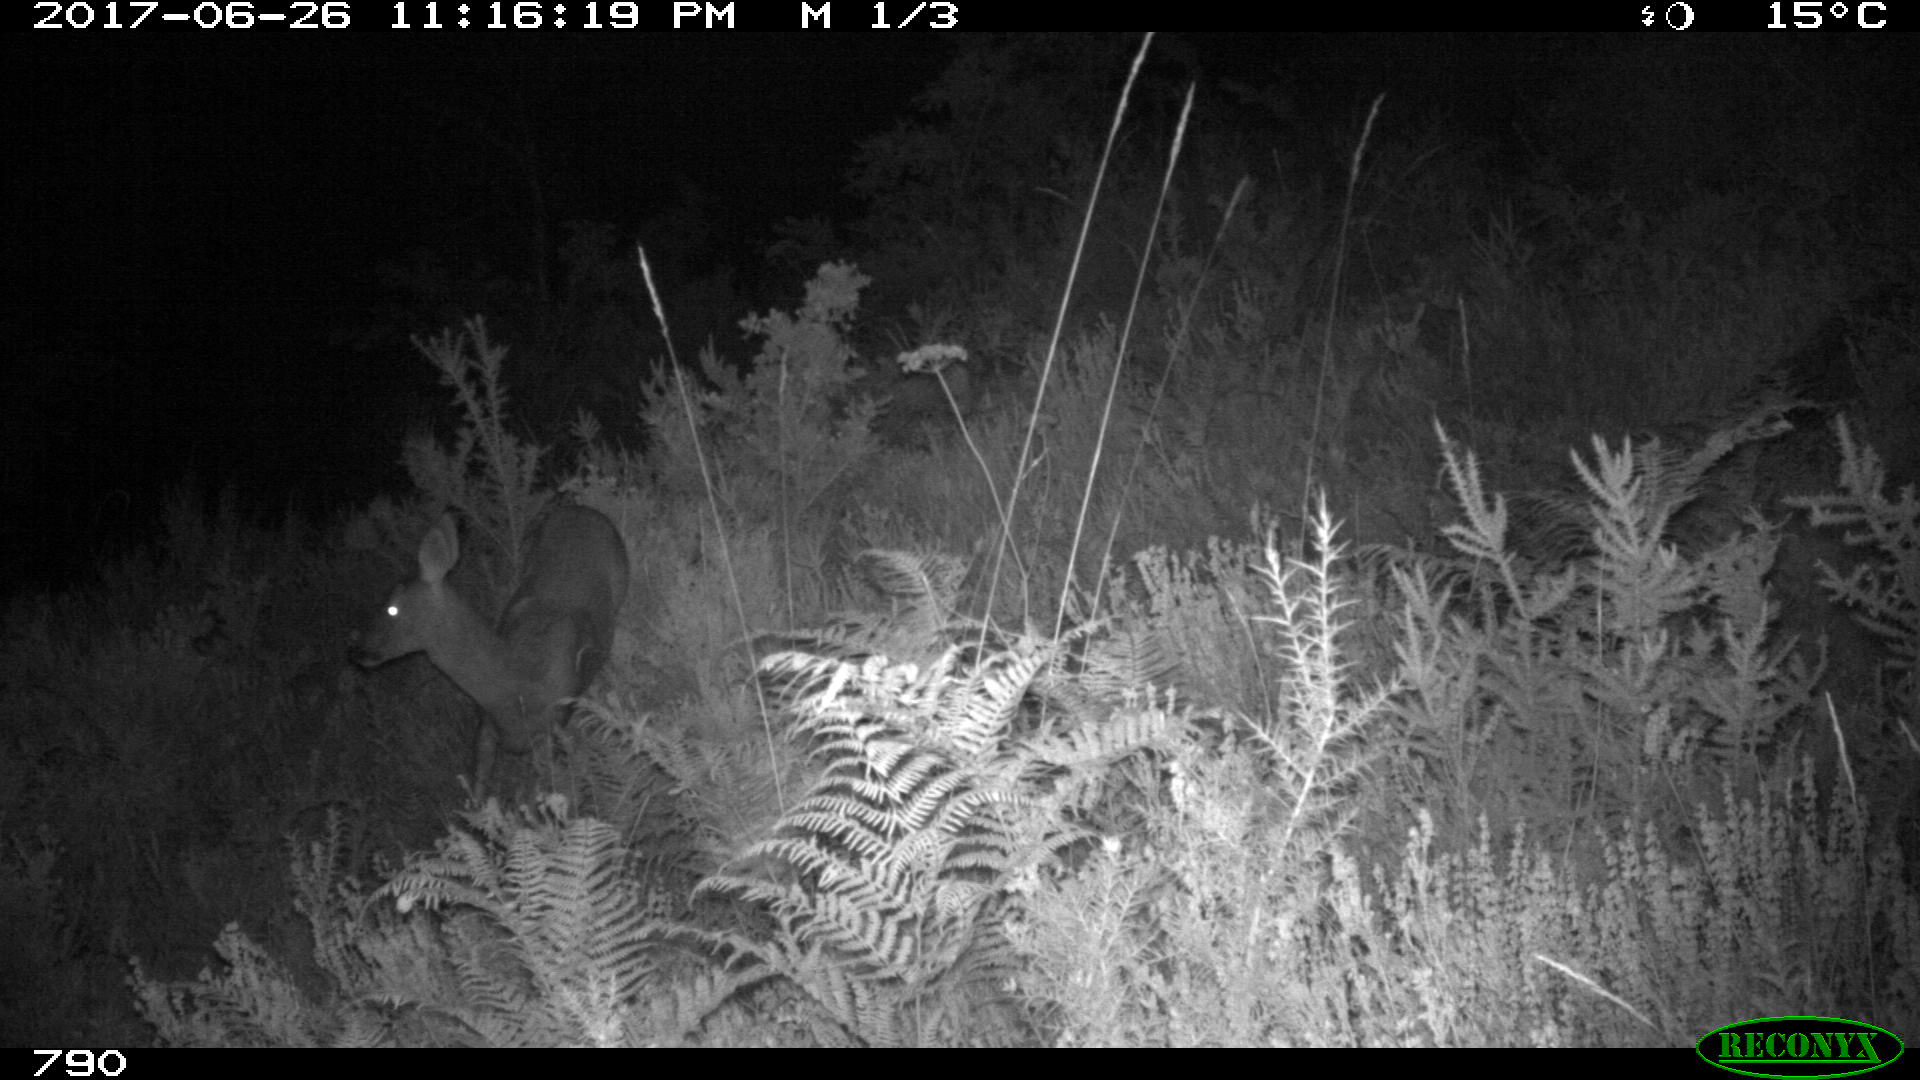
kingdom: Animalia
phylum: Chordata
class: Mammalia
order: Artiodactyla
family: Cervidae
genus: Capreolus
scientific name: Capreolus capreolus
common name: Western roe deer
